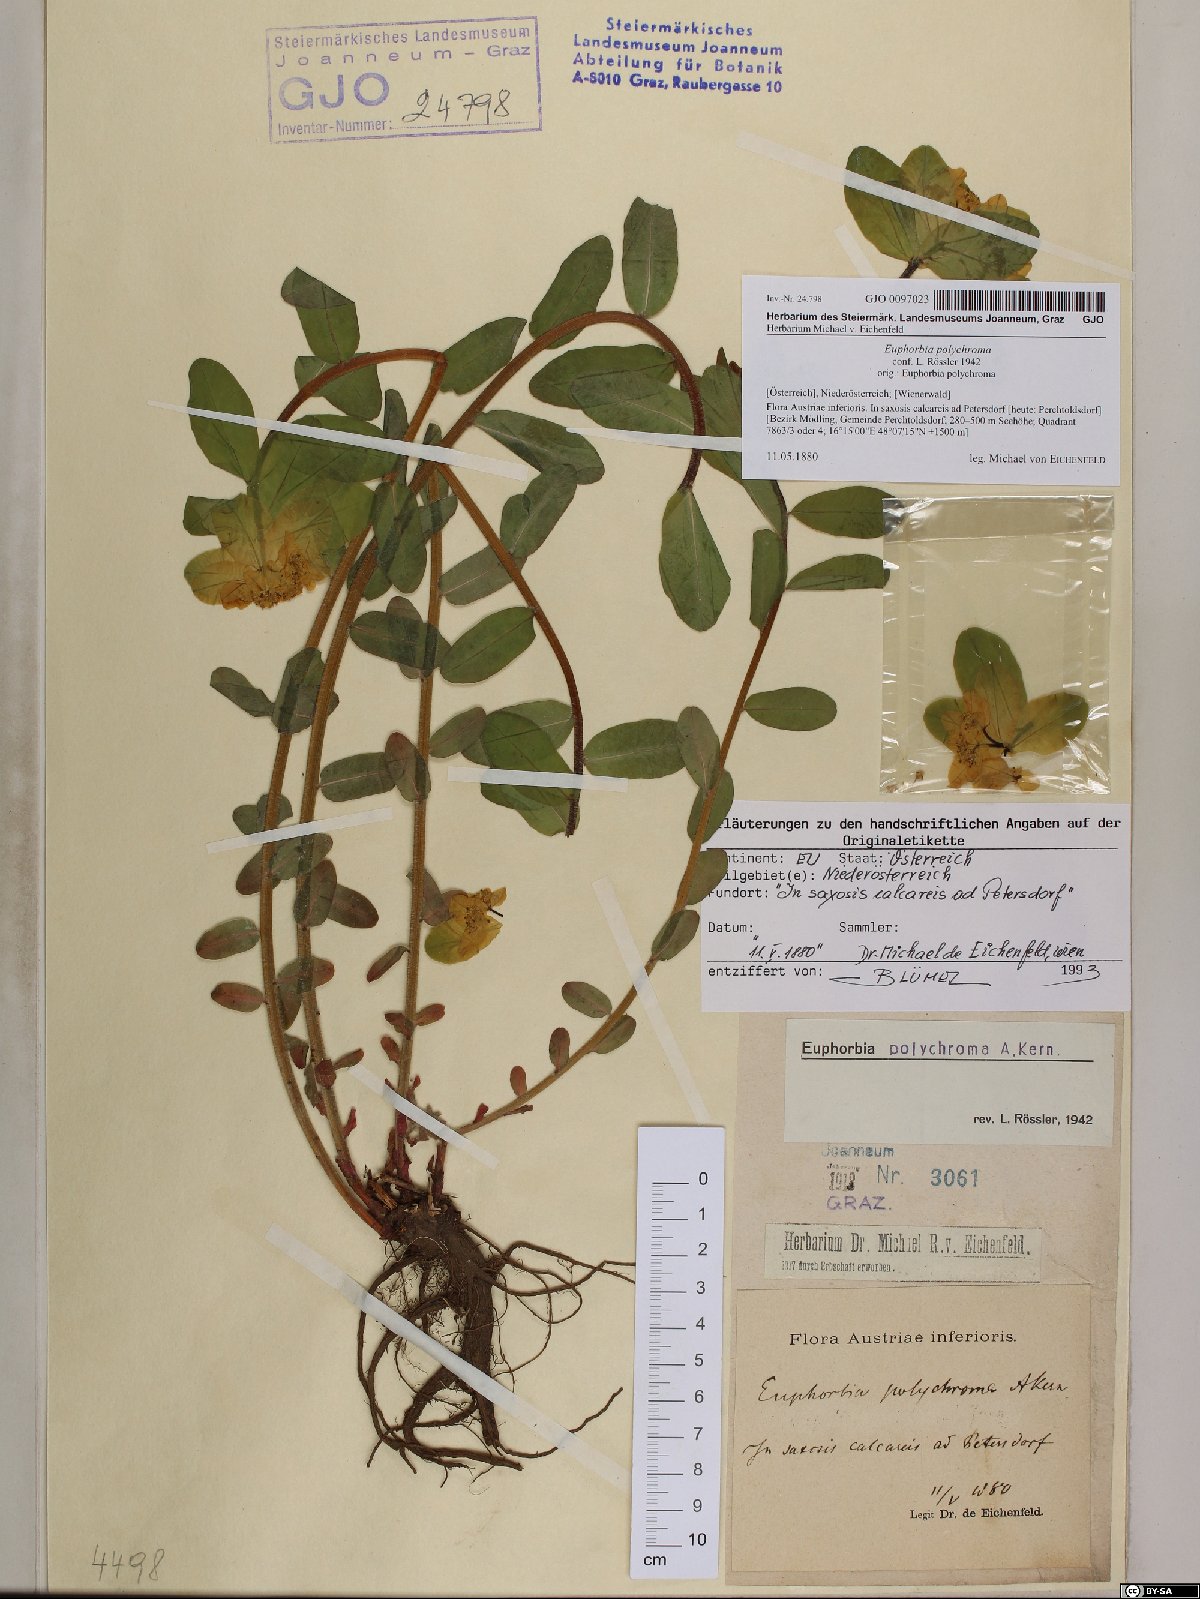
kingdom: Plantae
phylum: Tracheophyta
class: Magnoliopsida
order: Malpighiales
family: Euphorbiaceae
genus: Euphorbia
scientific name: Euphorbia epithymoides
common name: Cushion spurge
